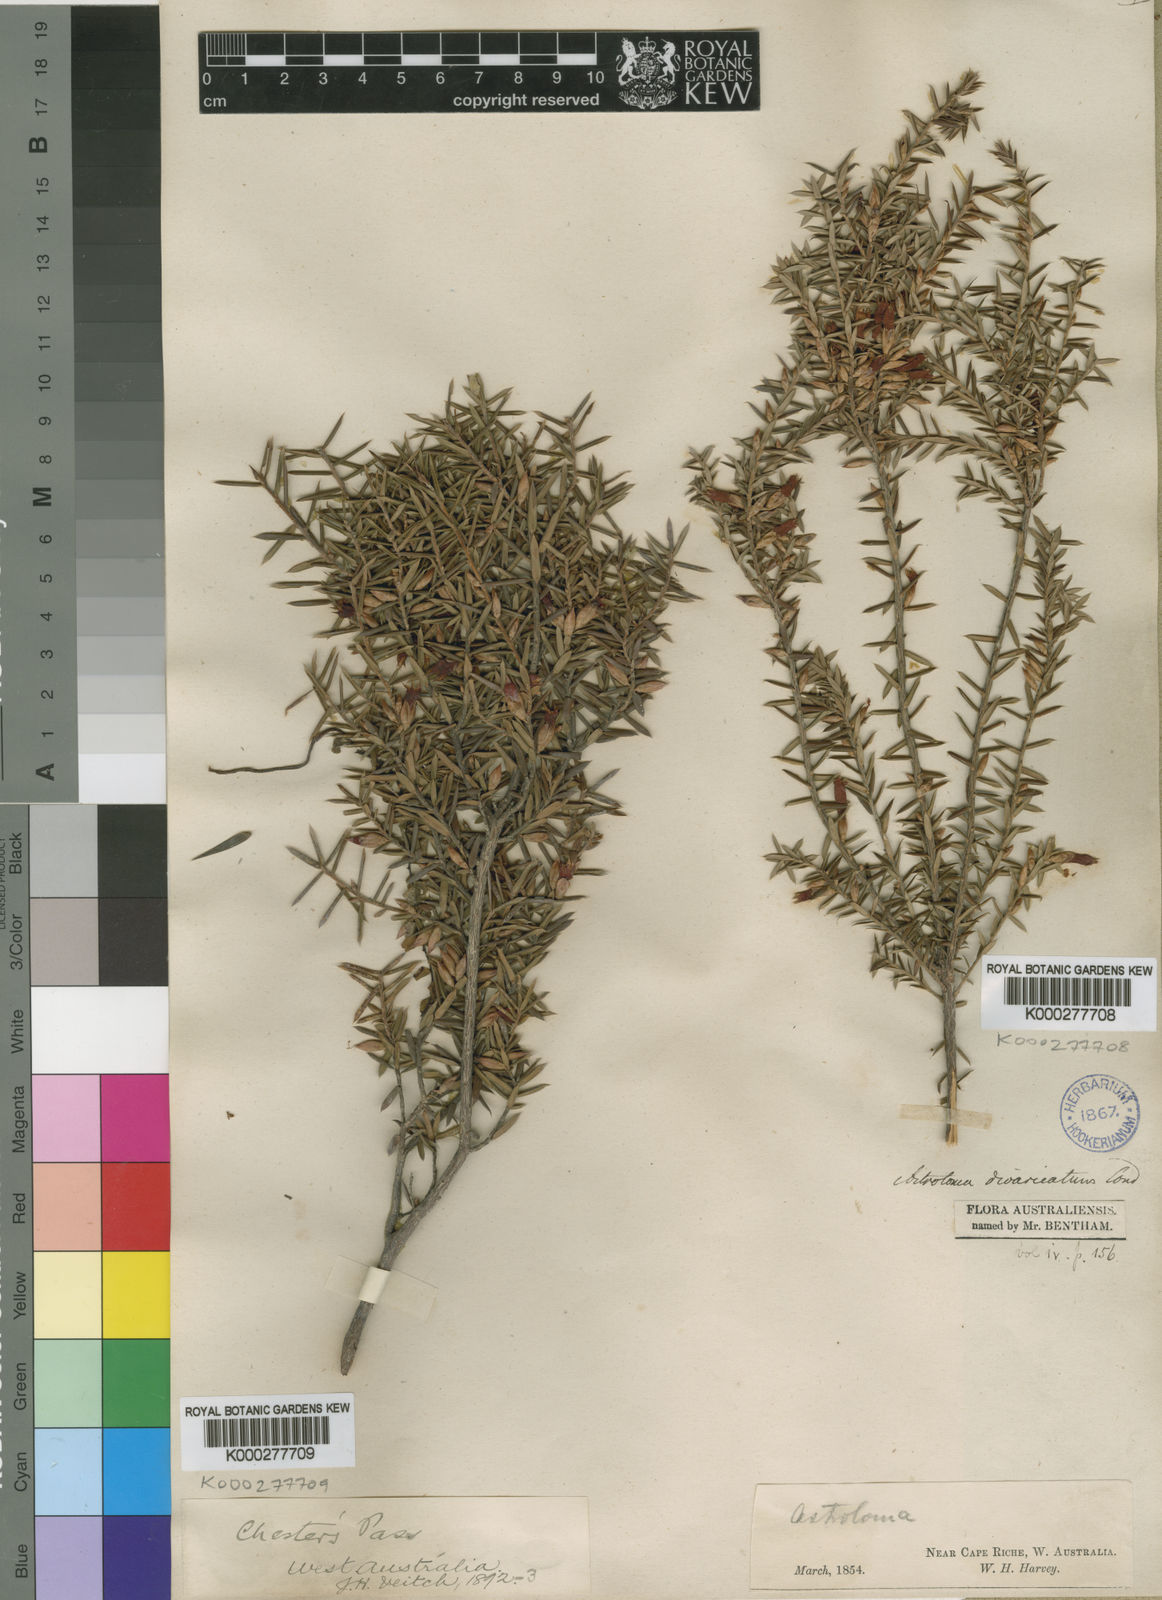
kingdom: Plantae
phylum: Tracheophyta
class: Magnoliopsida
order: Ericales
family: Ericaceae
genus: Styphelia
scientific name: Styphelia epacridis
